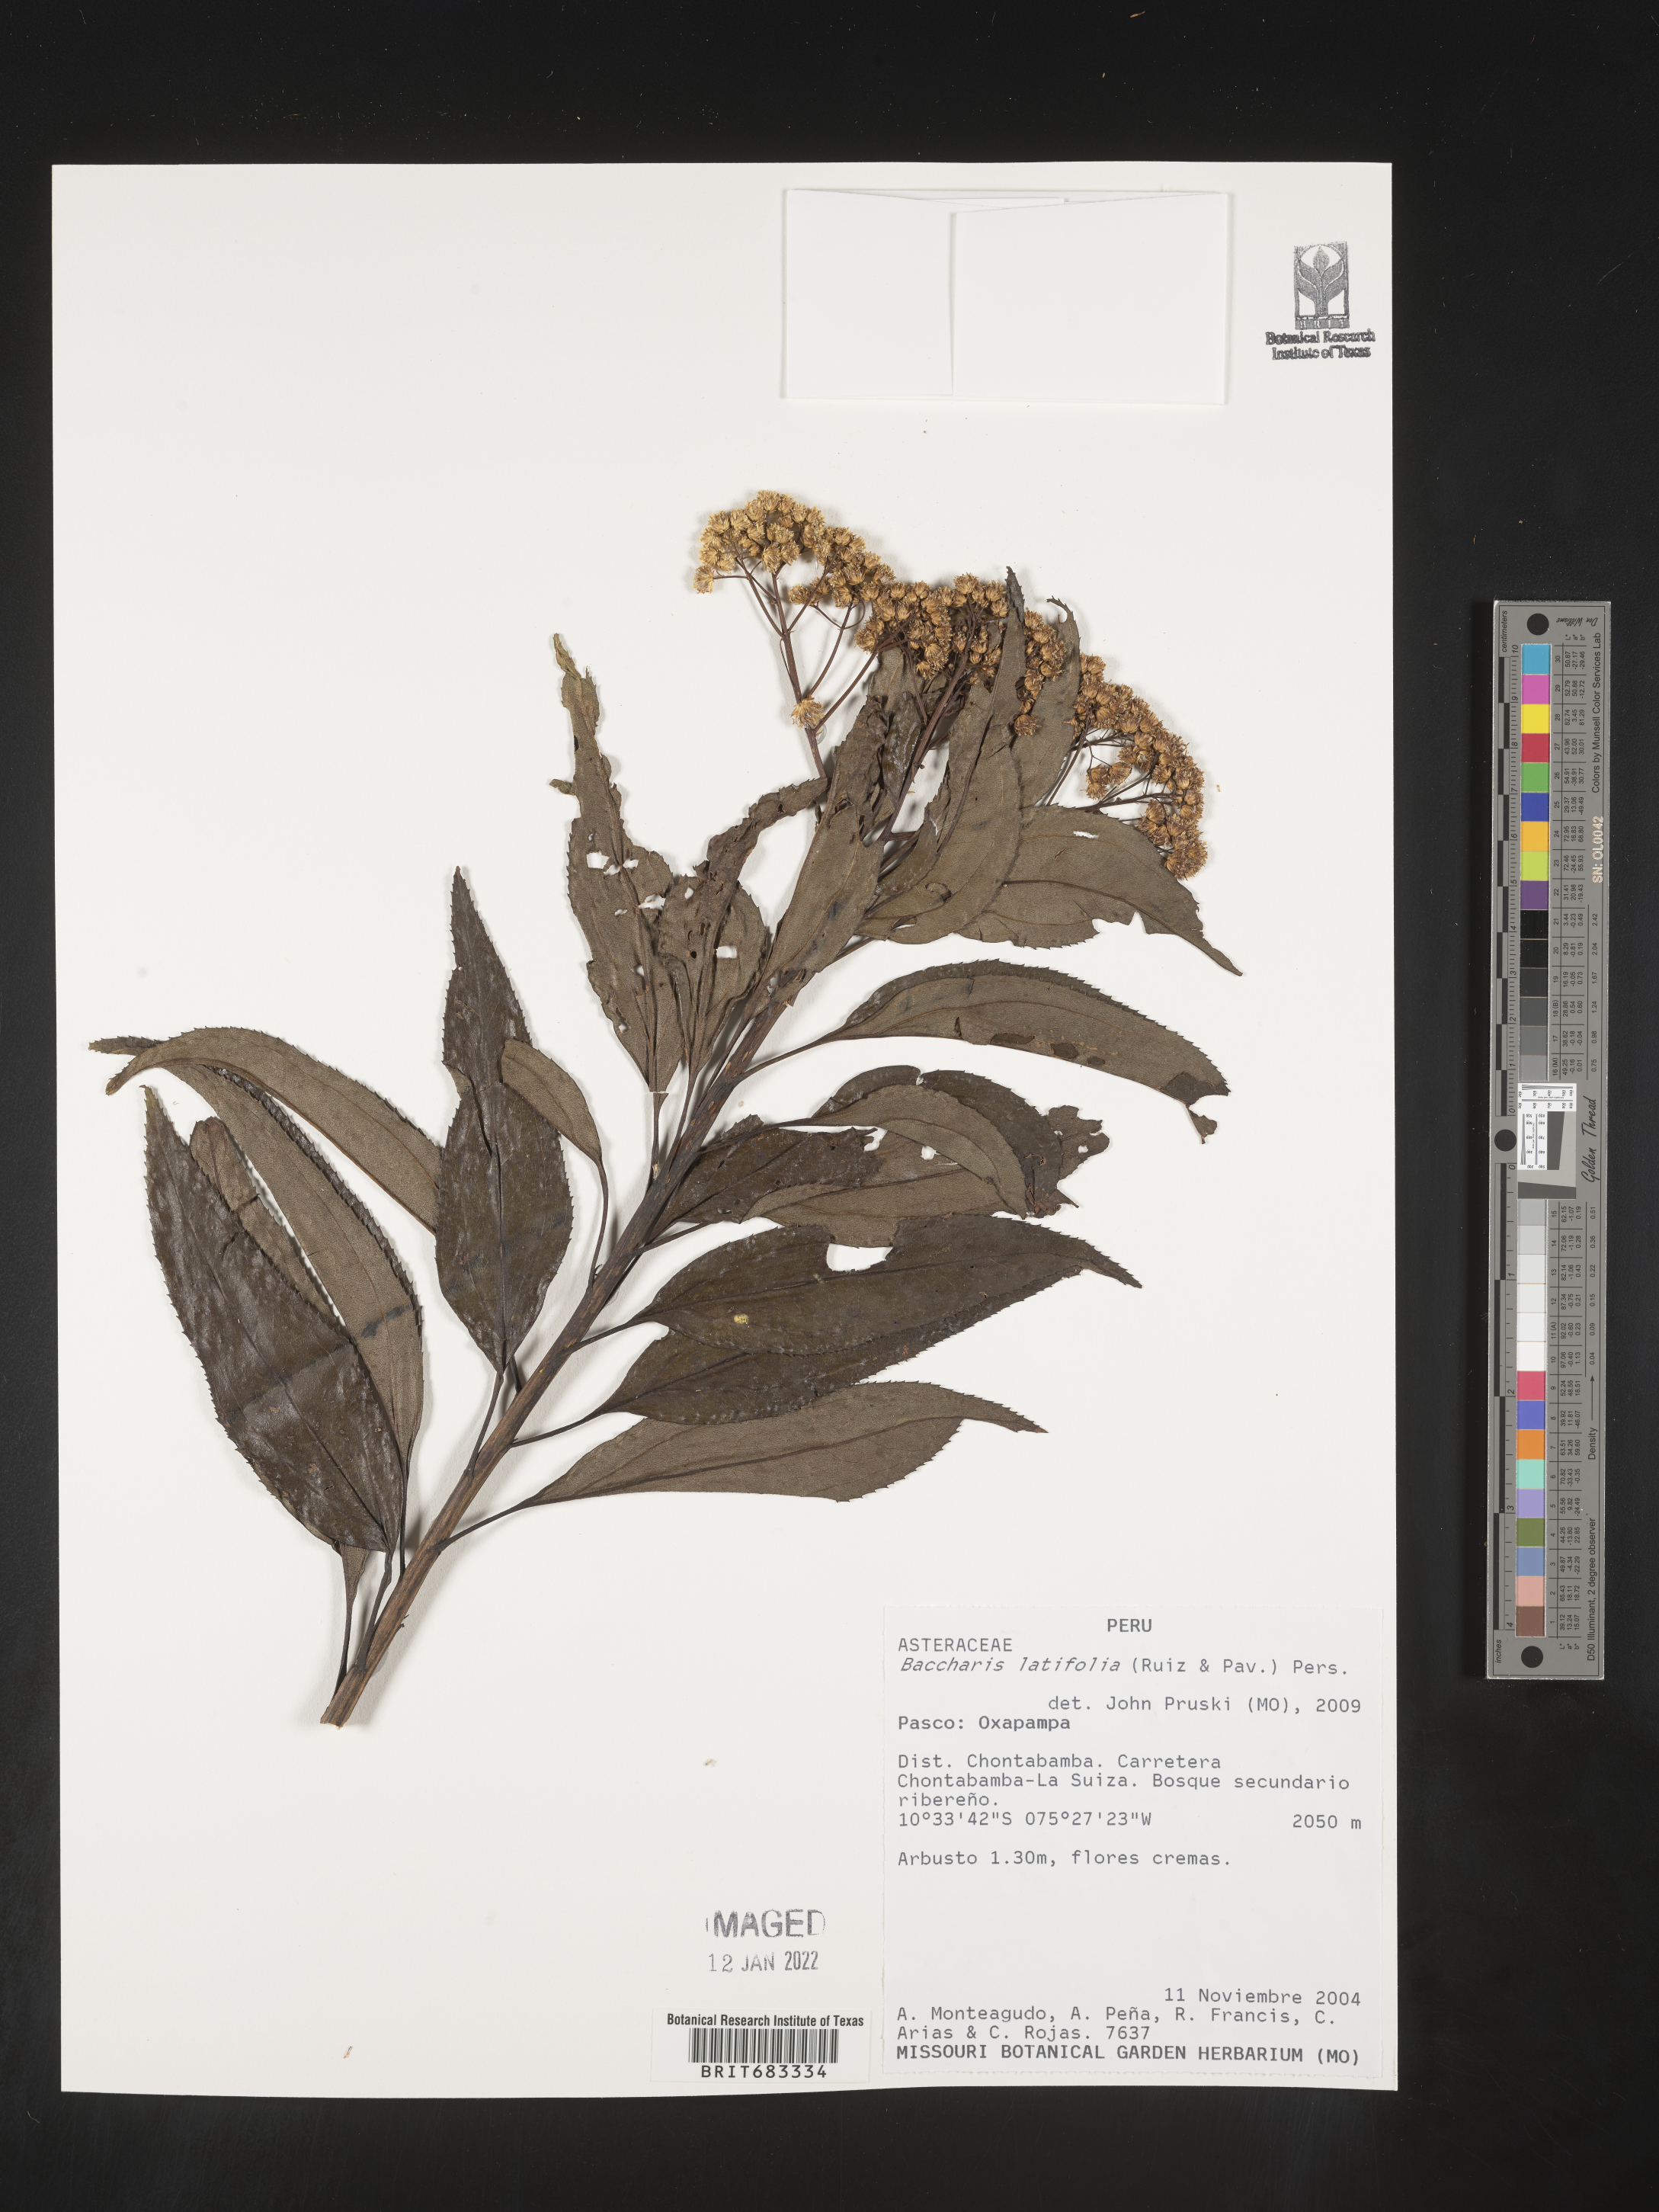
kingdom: Plantae
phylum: Tracheophyta
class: Magnoliopsida
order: Asterales
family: Asteraceae
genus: Baccharis
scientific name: Baccharis
